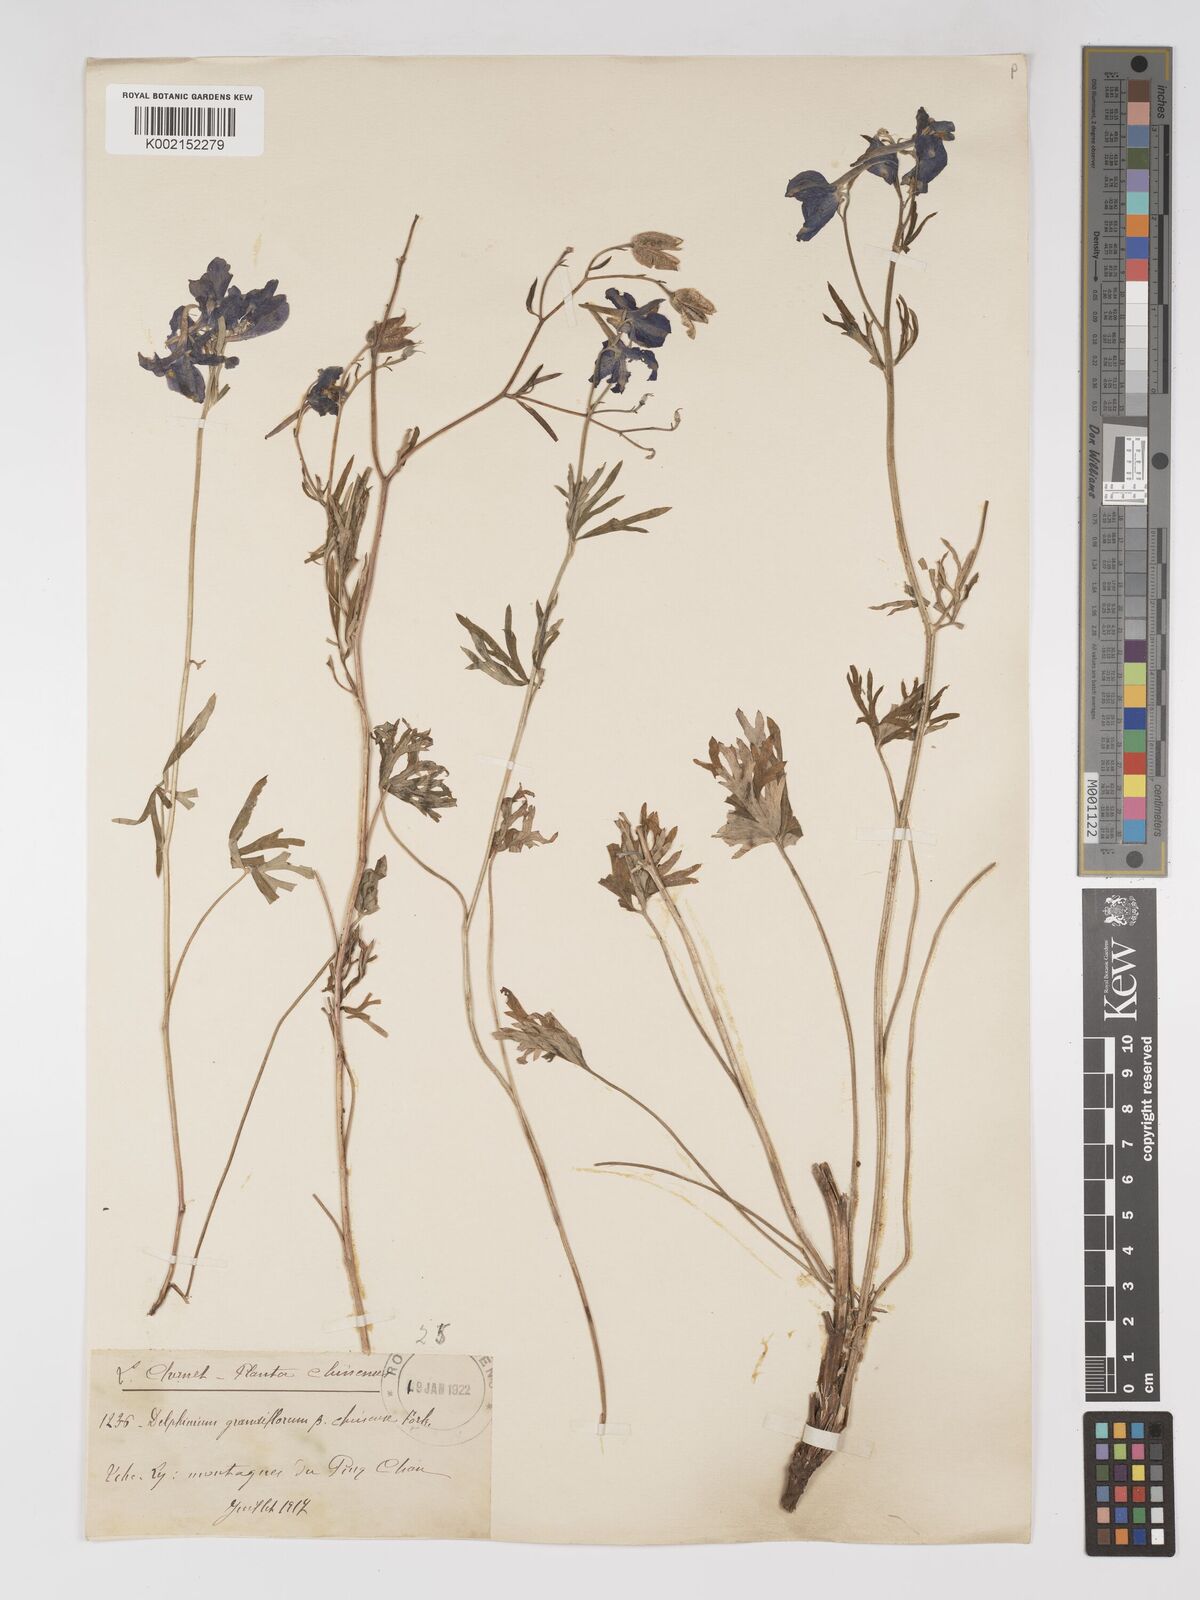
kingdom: Plantae
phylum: Tracheophyta
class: Magnoliopsida
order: Ranunculales
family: Ranunculaceae
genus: Delphinium
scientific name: Delphinium grandiflorum
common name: Siberian larkspur
